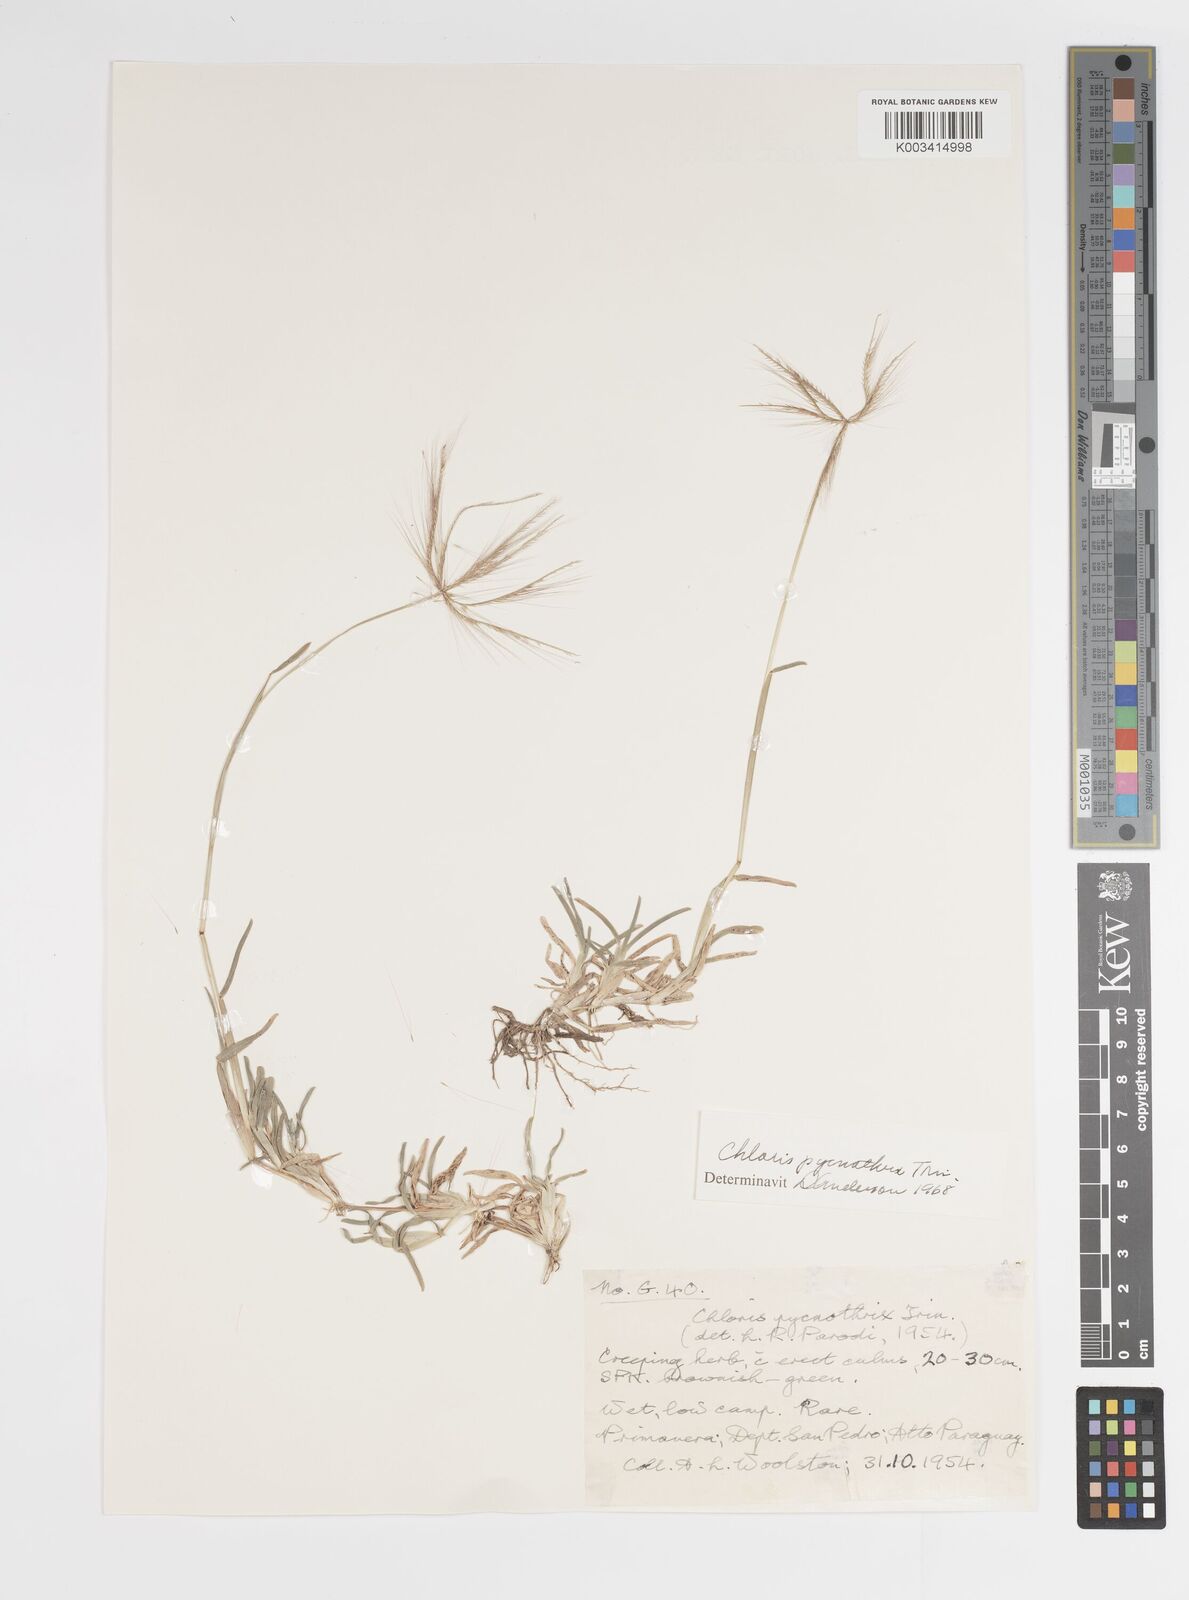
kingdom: Plantae
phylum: Tracheophyta
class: Liliopsida
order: Poales
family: Poaceae
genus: Chloris
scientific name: Chloris pycnothrix
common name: Spiderweb chloris
